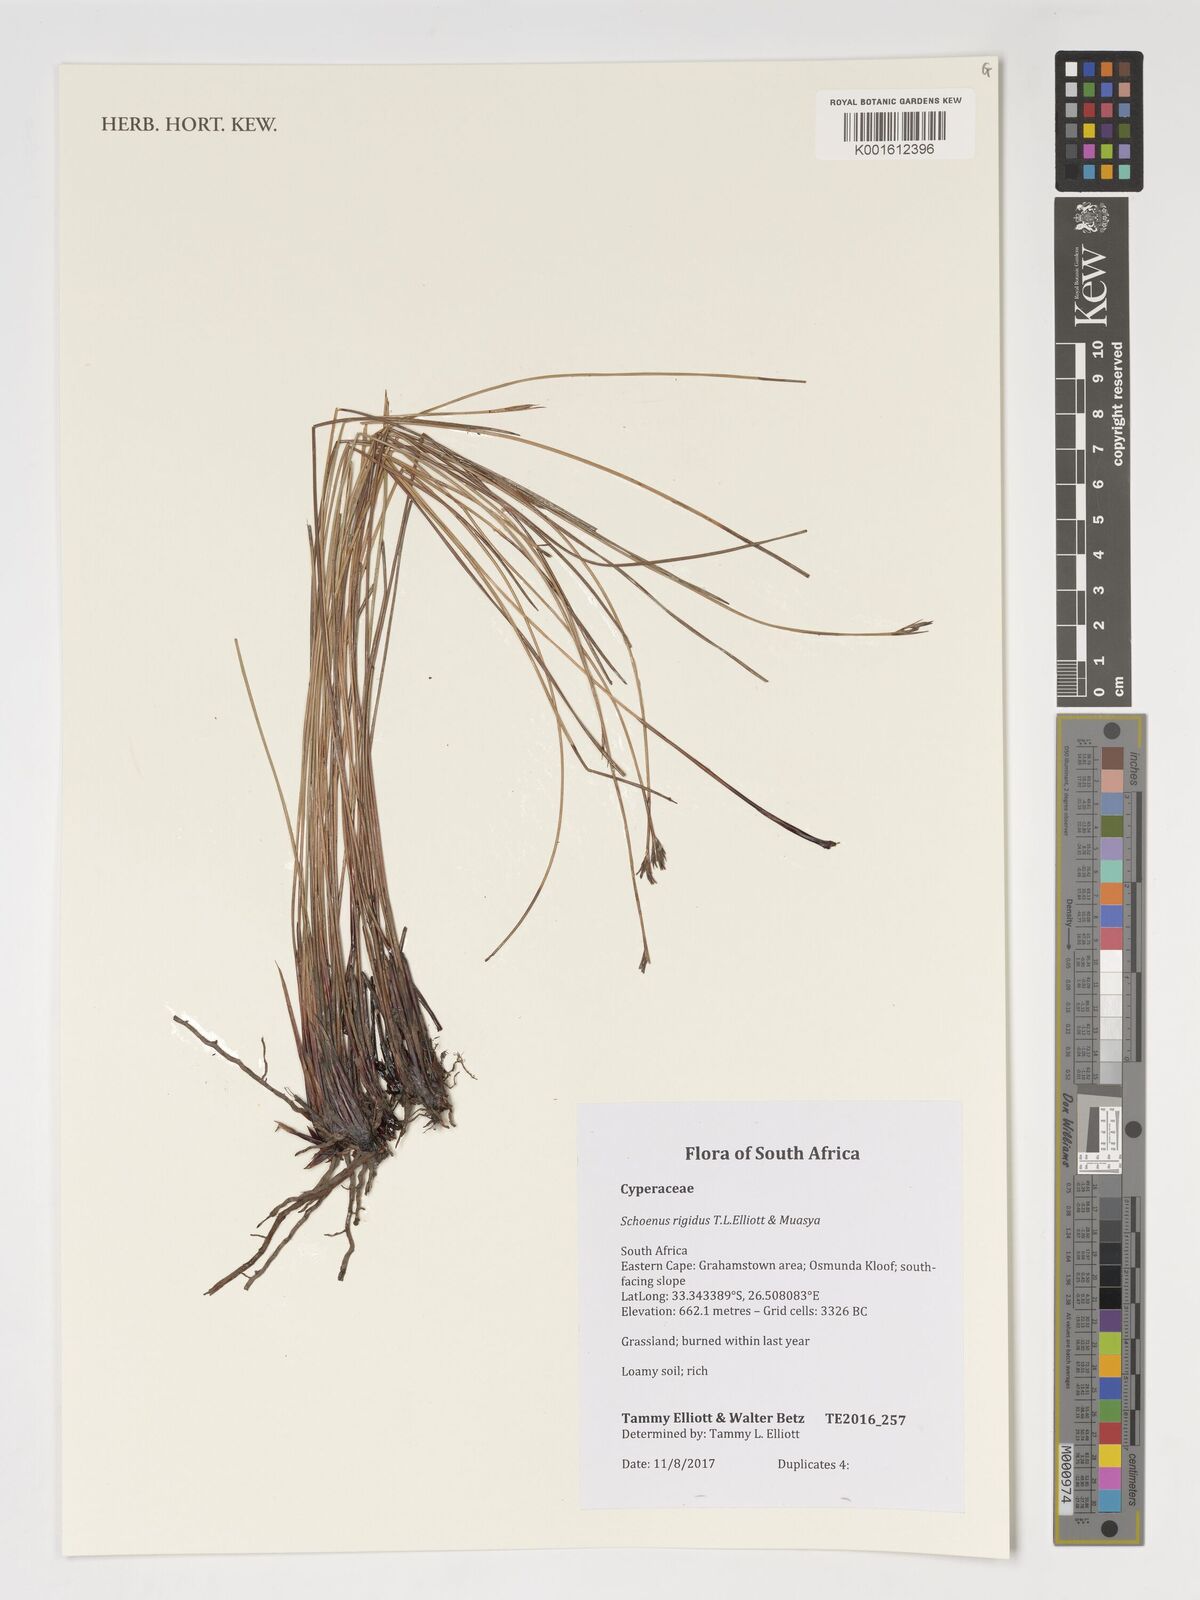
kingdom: Plantae
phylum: Tracheophyta
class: Liliopsida
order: Poales
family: Cyperaceae
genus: Schoenus
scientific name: Schoenus
